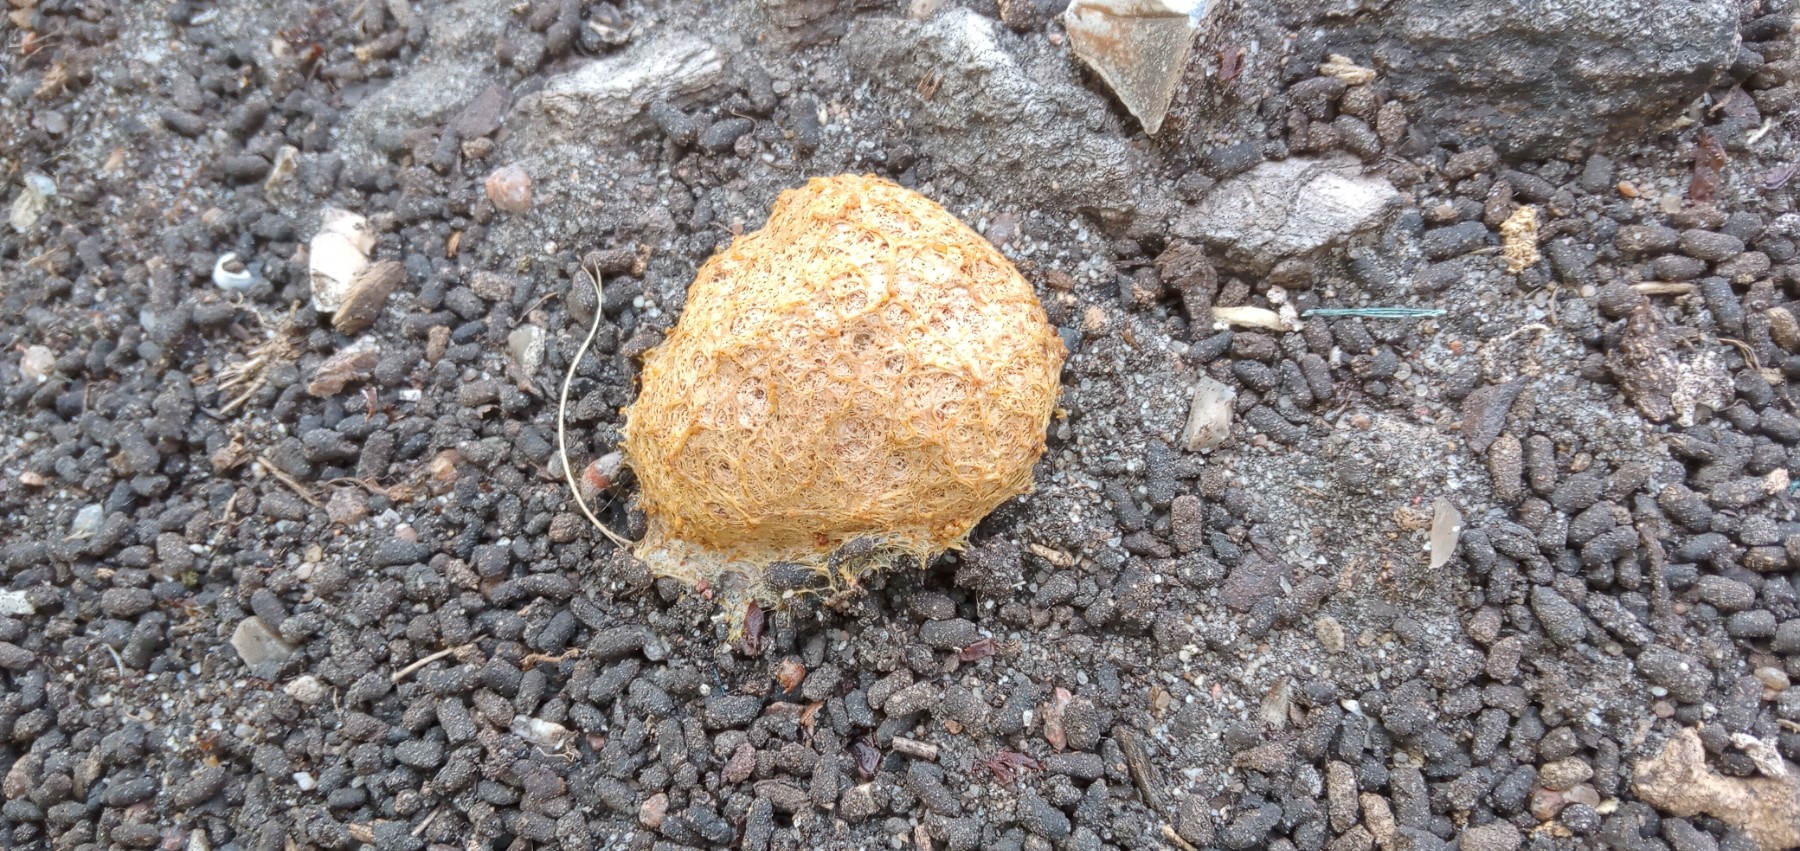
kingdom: Protozoa
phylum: Mycetozoa
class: Myxomycetes
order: Physarales
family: Physaraceae
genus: Fuligo
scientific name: Fuligo septica
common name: Dog vomit slime mold
